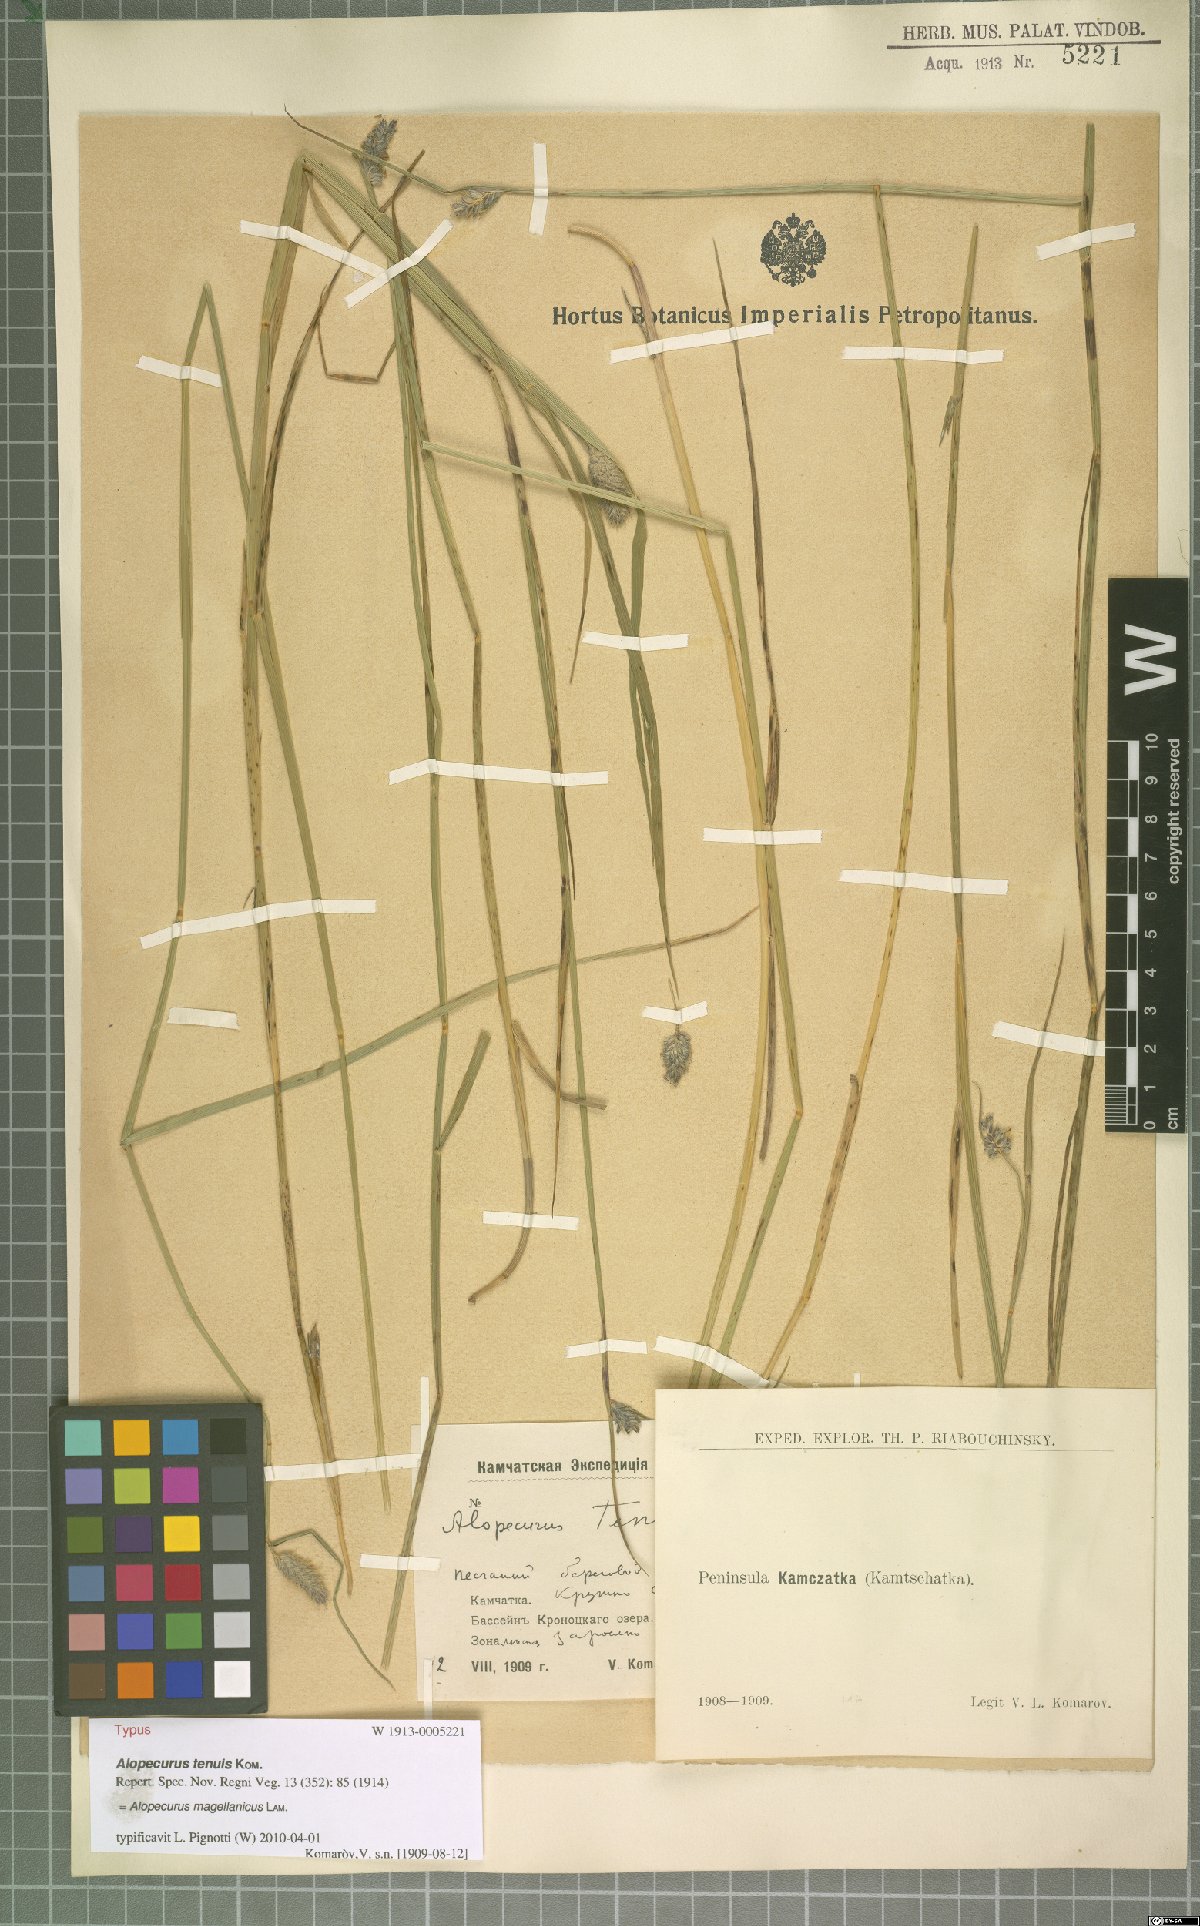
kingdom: Plantae
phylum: Tracheophyta
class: Liliopsida
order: Poales
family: Poaceae
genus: Alopecurus
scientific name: Alopecurus magellanicus
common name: Alpine foxtail
